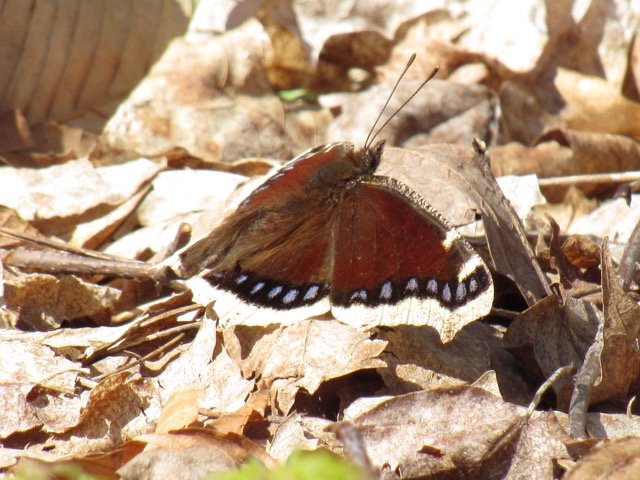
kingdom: Animalia
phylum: Arthropoda
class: Insecta
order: Lepidoptera
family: Nymphalidae
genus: Nymphalis
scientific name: Nymphalis antiopa
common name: Mourning Cloak
